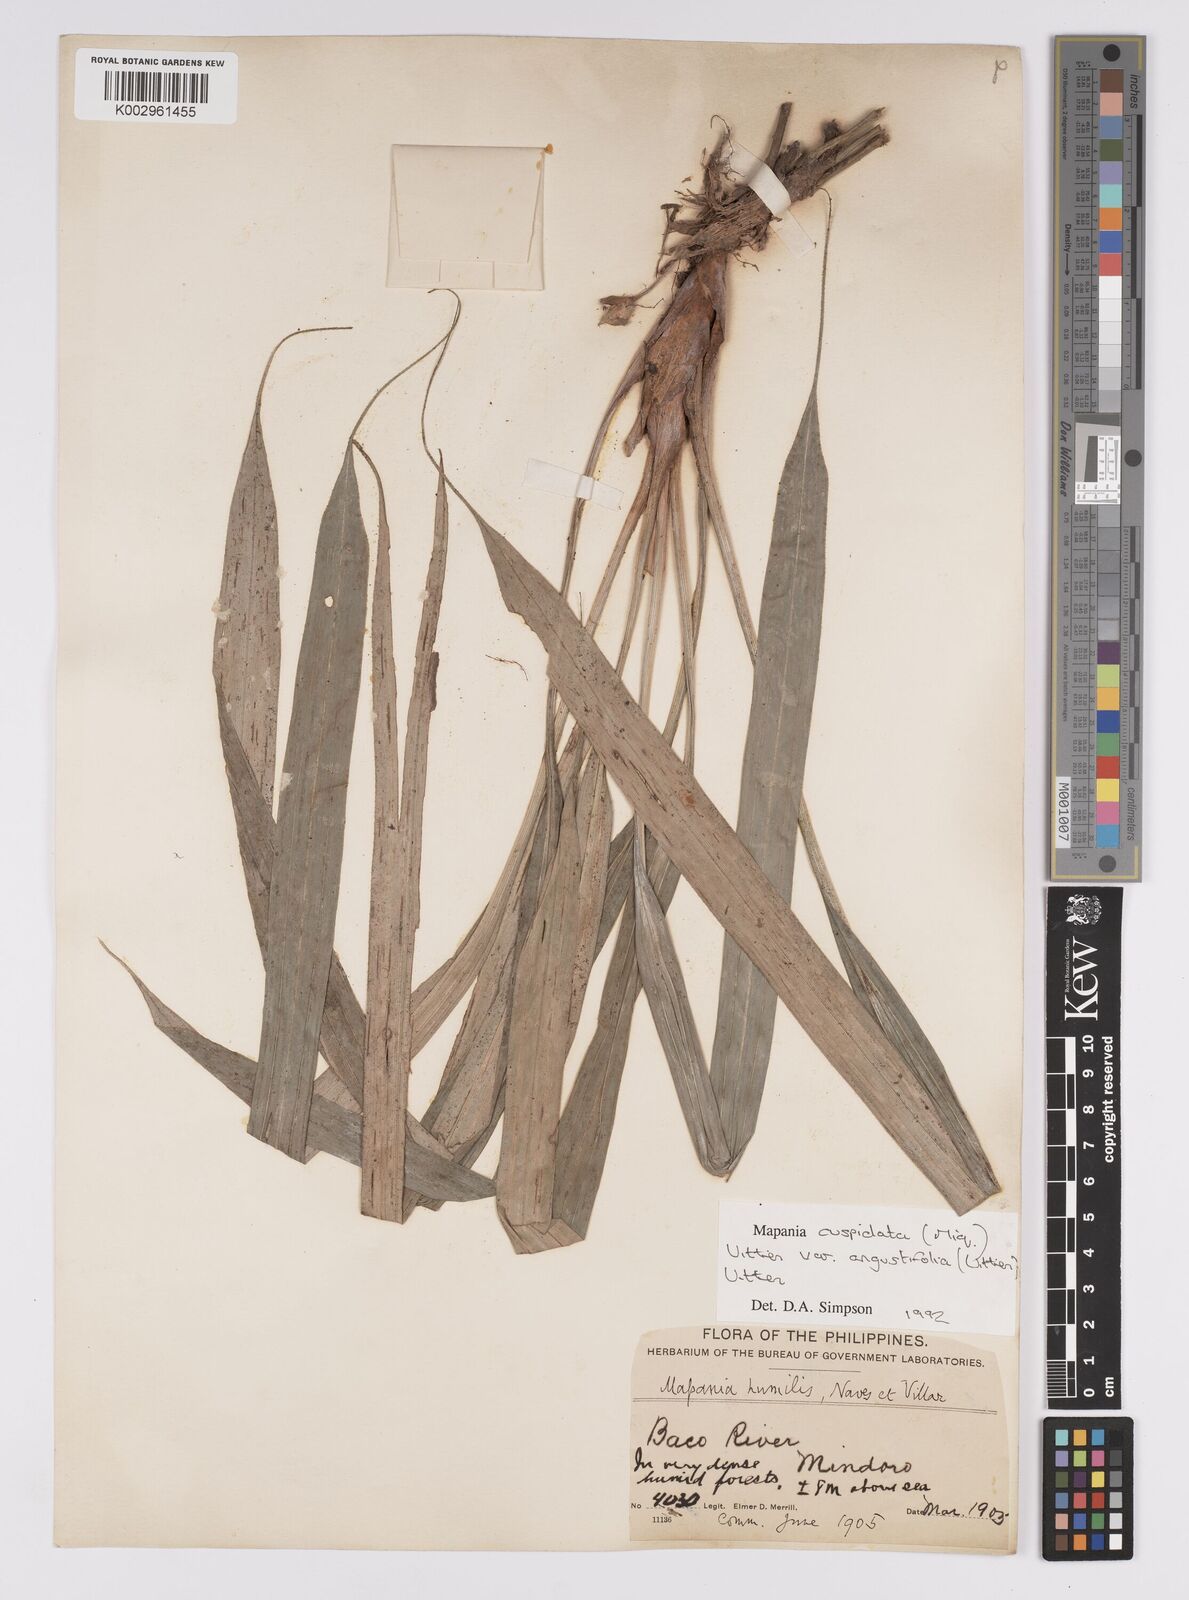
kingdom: Plantae
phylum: Tracheophyta
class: Liliopsida
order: Poales
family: Cyperaceae
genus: Mapania
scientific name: Mapania cuspidata
